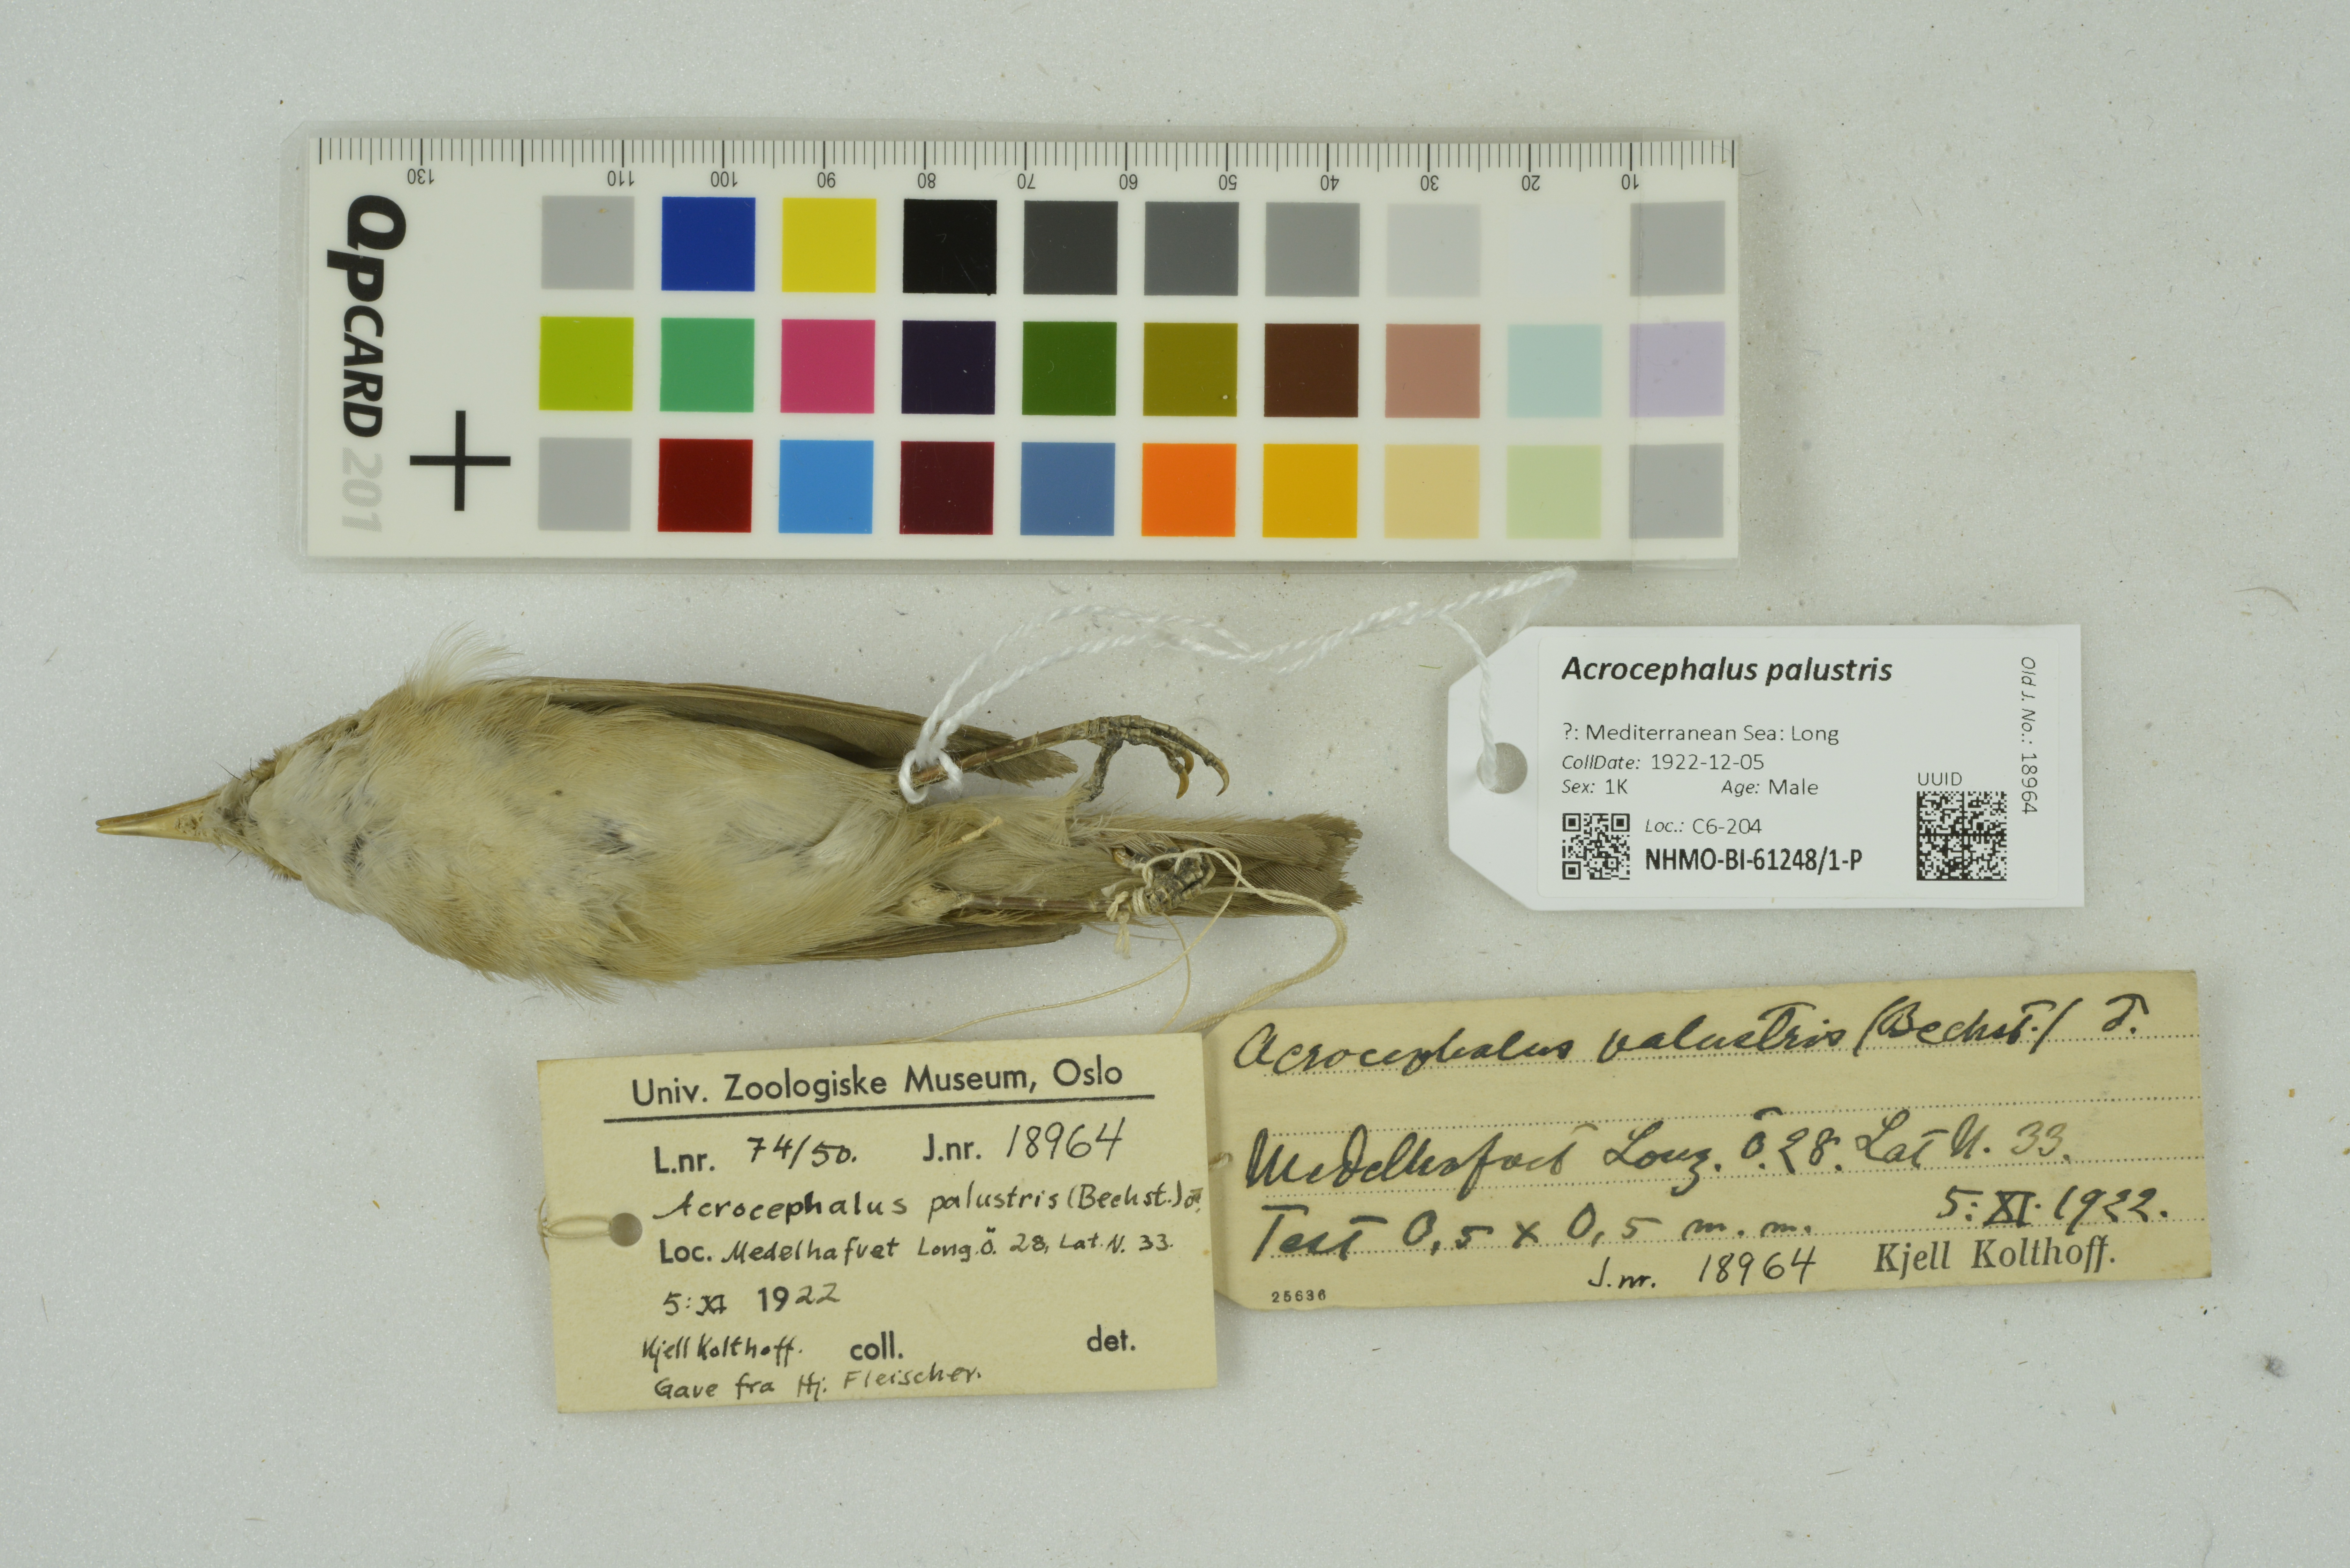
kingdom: Animalia
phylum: Chordata
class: Aves
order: Passeriformes
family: Acrocephalidae
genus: Acrocephalus
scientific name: Acrocephalus palustris
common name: Marsh warbler
